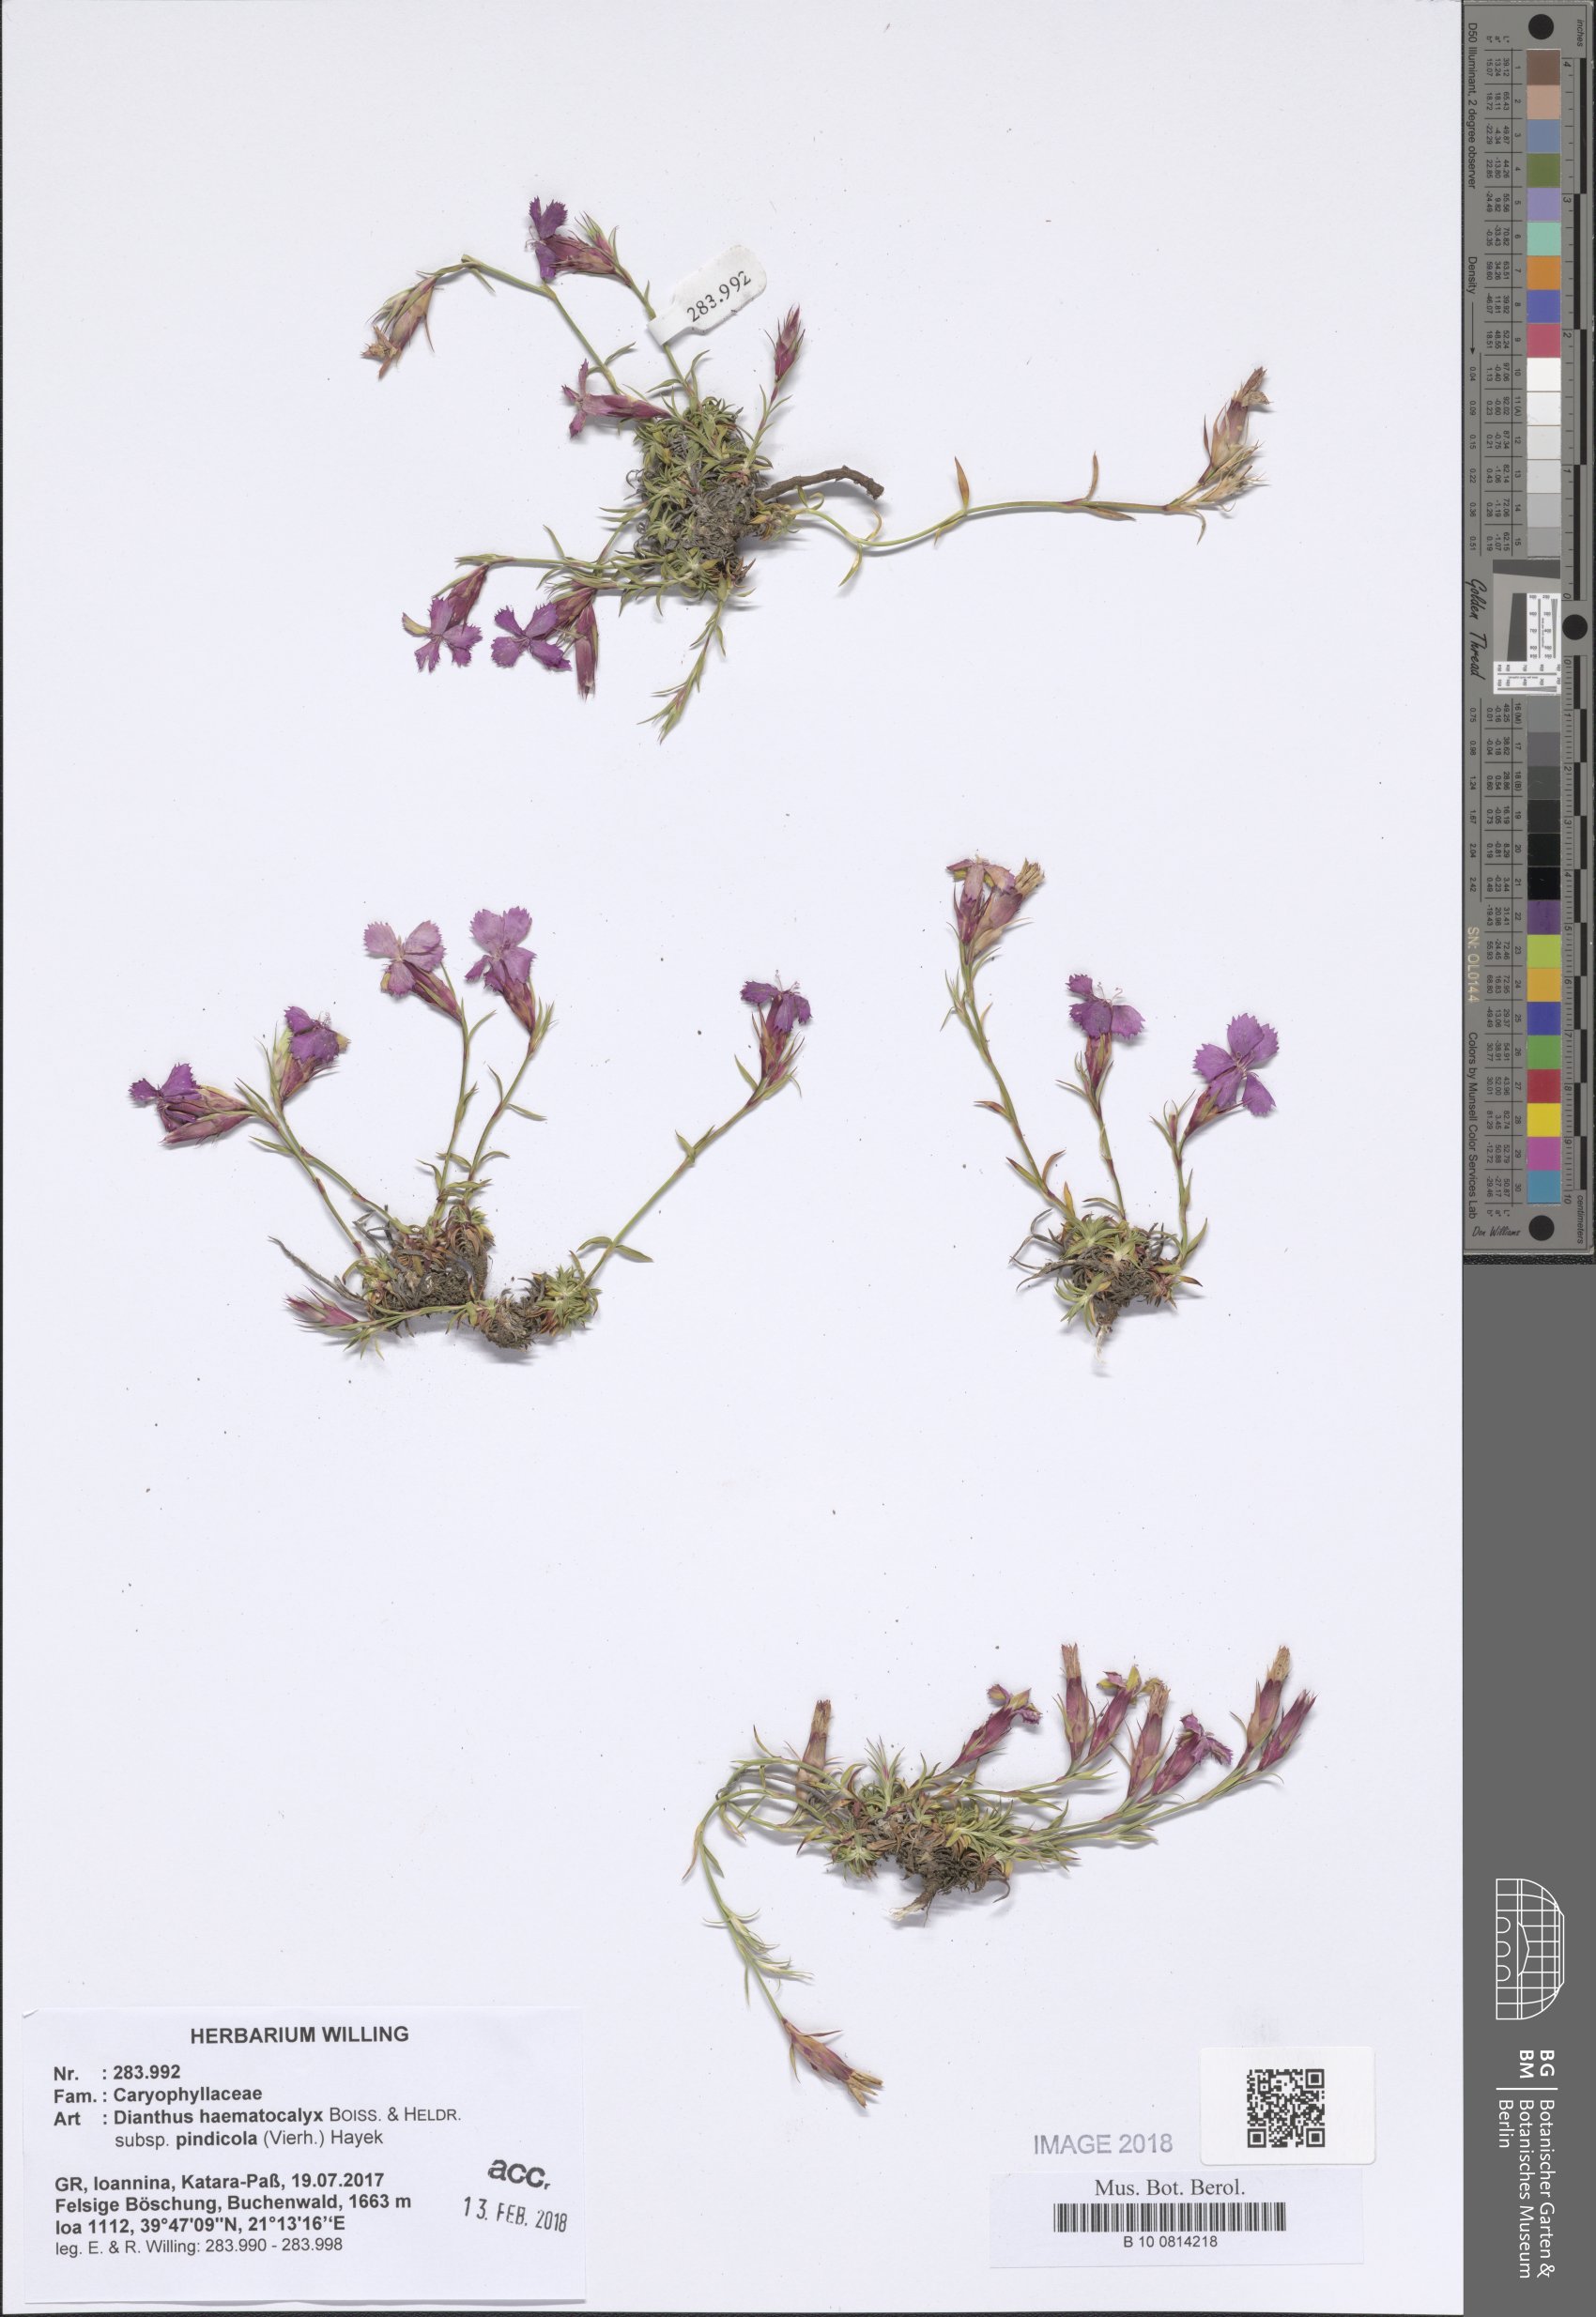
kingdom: Plantae
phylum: Tracheophyta
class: Magnoliopsida
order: Caryophyllales
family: Caryophyllaceae
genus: Dianthus
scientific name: Dianthus haematocalyx
